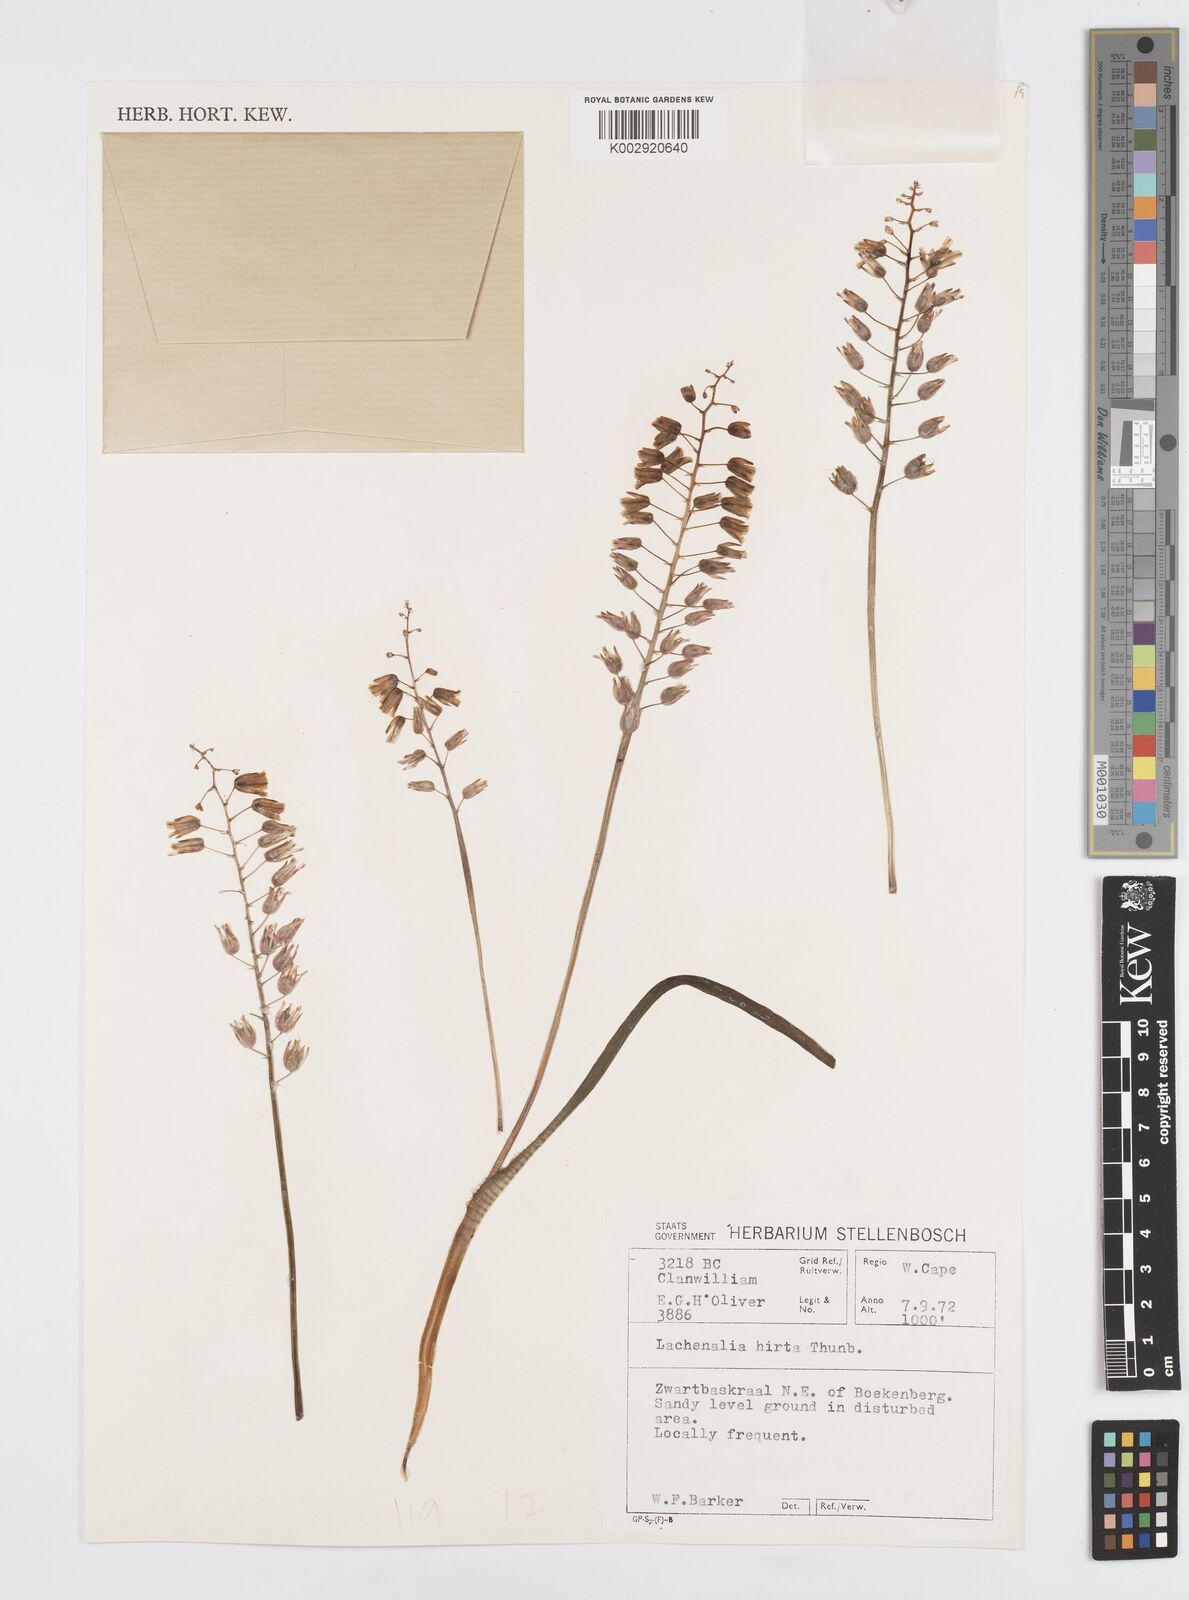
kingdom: Plantae
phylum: Tracheophyta
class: Liliopsida
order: Asparagales
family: Asparagaceae
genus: Lachenalia
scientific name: Lachenalia hirta
